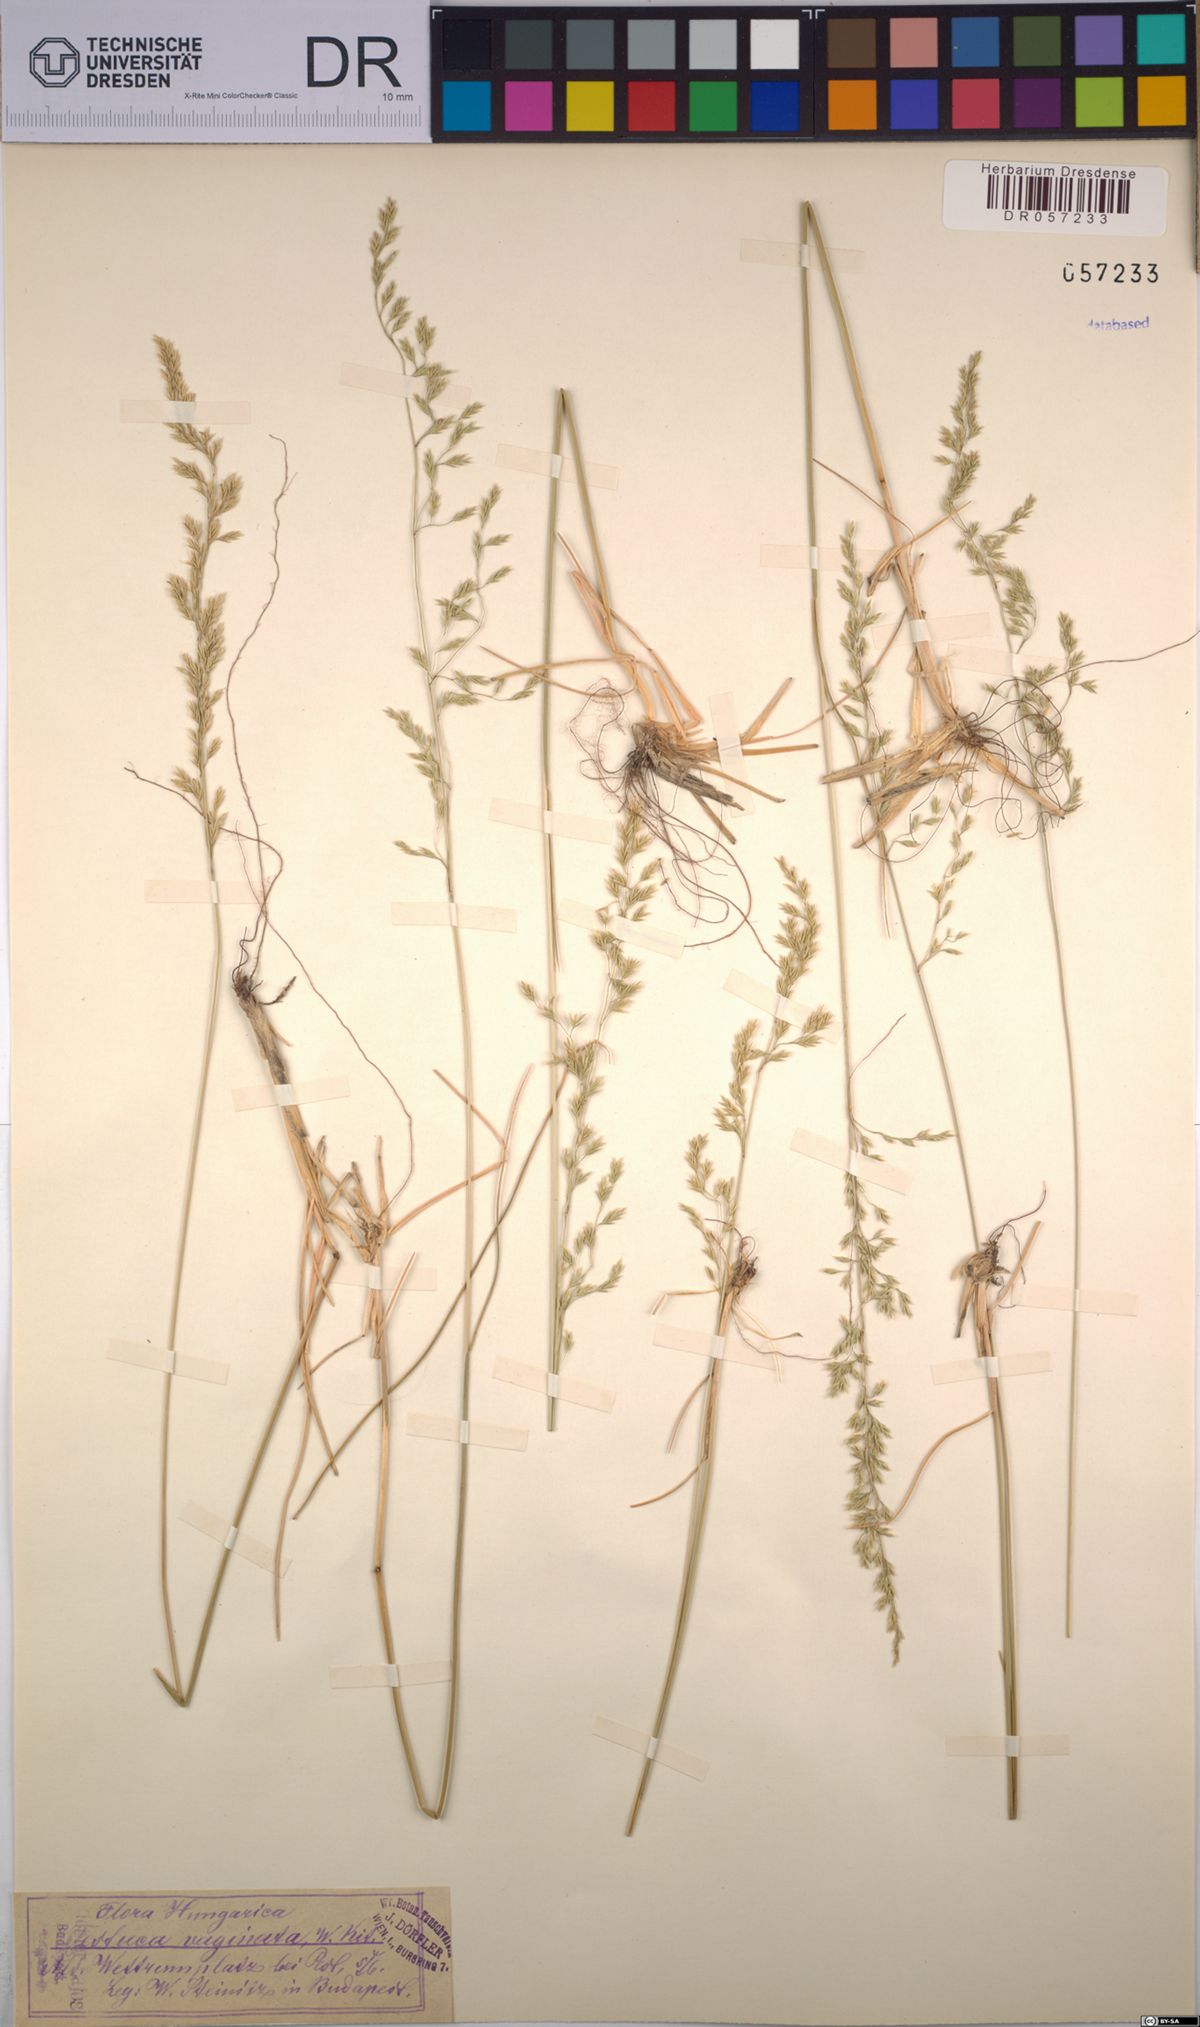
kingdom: Plantae
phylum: Tracheophyta
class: Liliopsida
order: Poales
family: Poaceae
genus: Festuca
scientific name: Festuca vaginata
